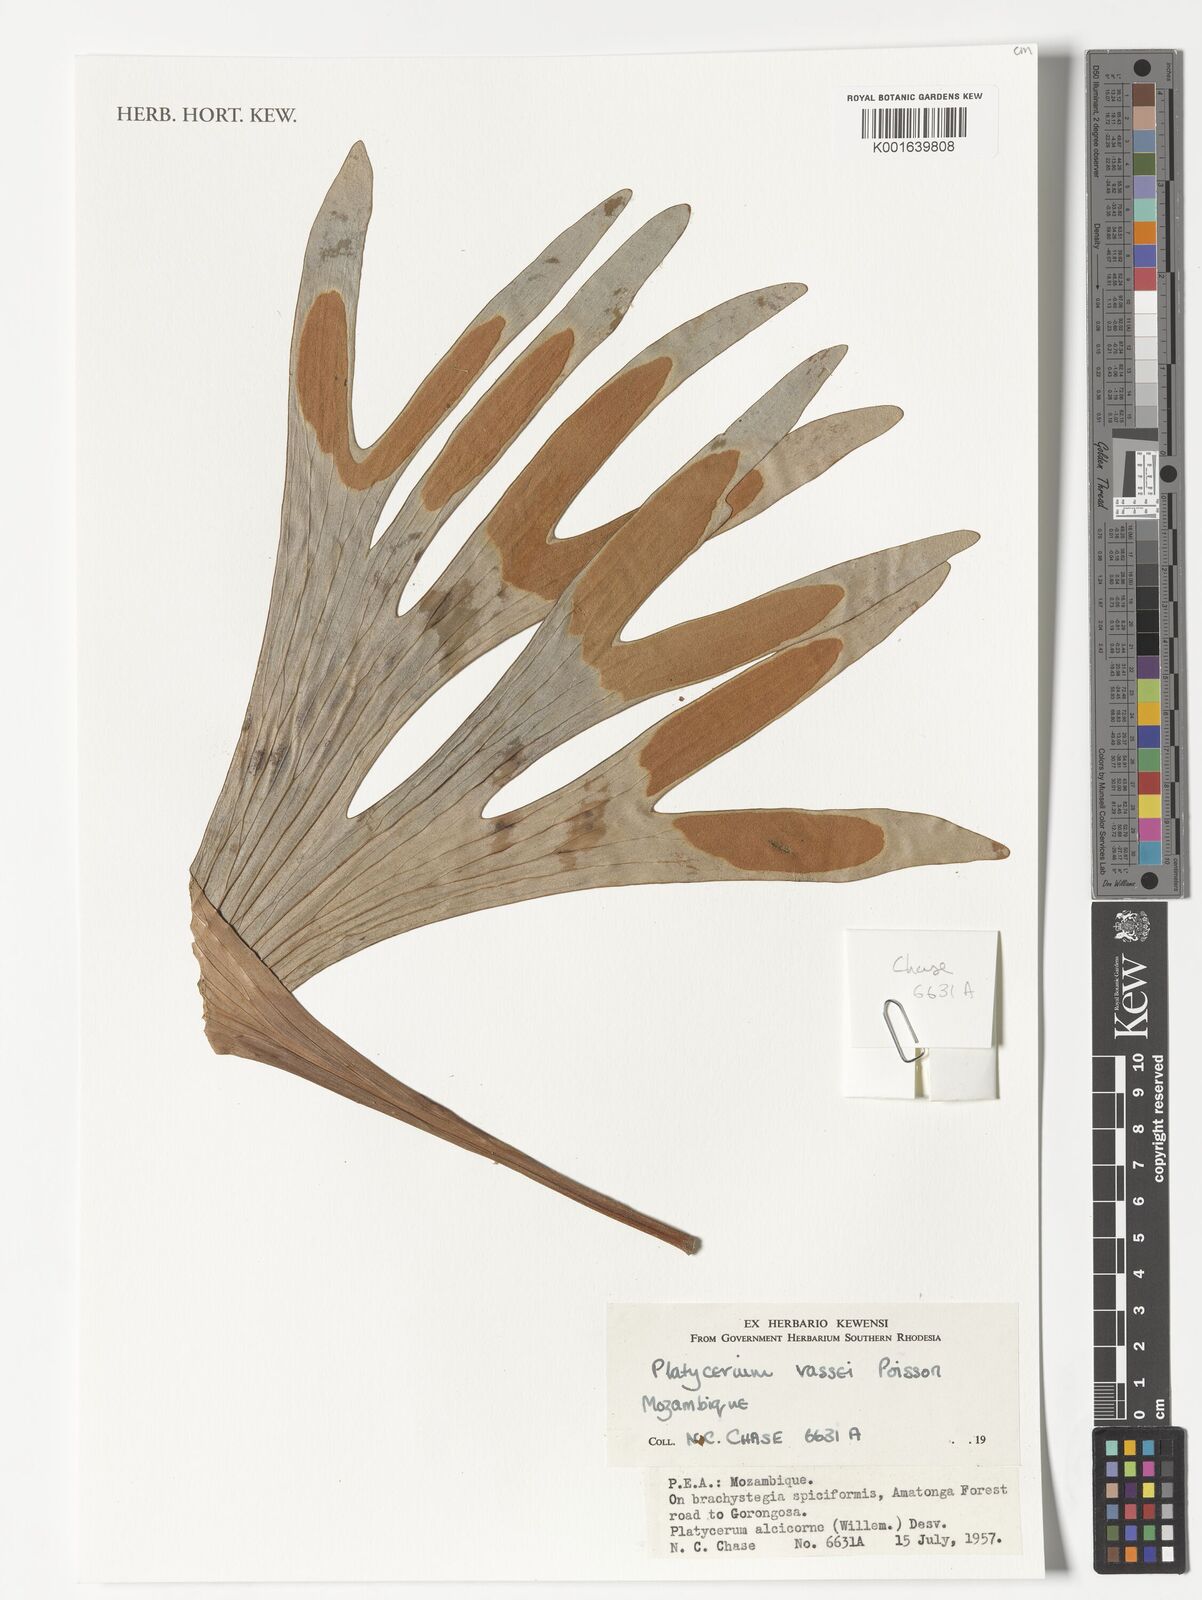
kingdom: Plantae
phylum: Tracheophyta
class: Polypodiopsida
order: Polypodiales
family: Polypodiaceae
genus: Platycerium
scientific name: Platycerium alcicorne
